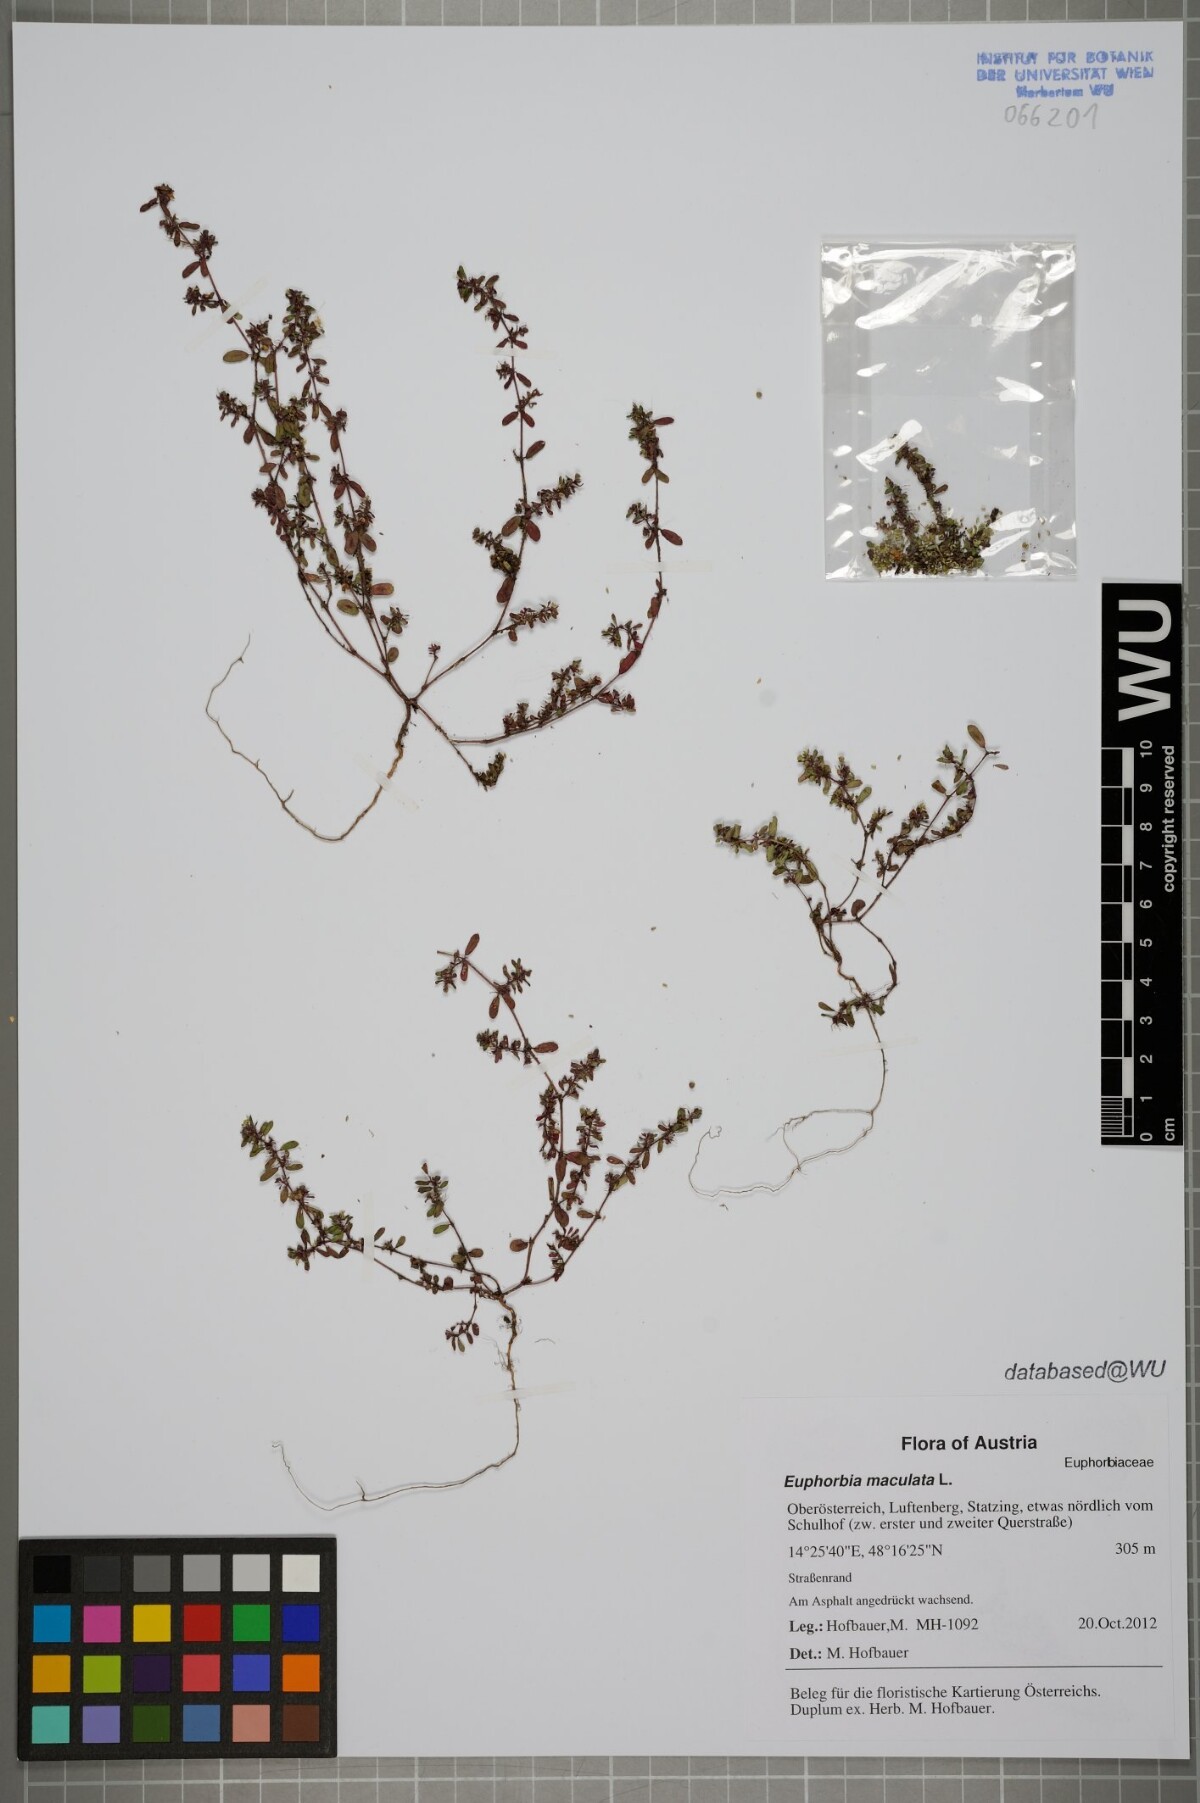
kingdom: Plantae
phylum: Tracheophyta
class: Magnoliopsida
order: Malpighiales
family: Euphorbiaceae
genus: Euphorbia
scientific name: Euphorbia maculata
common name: Spotted spurge
